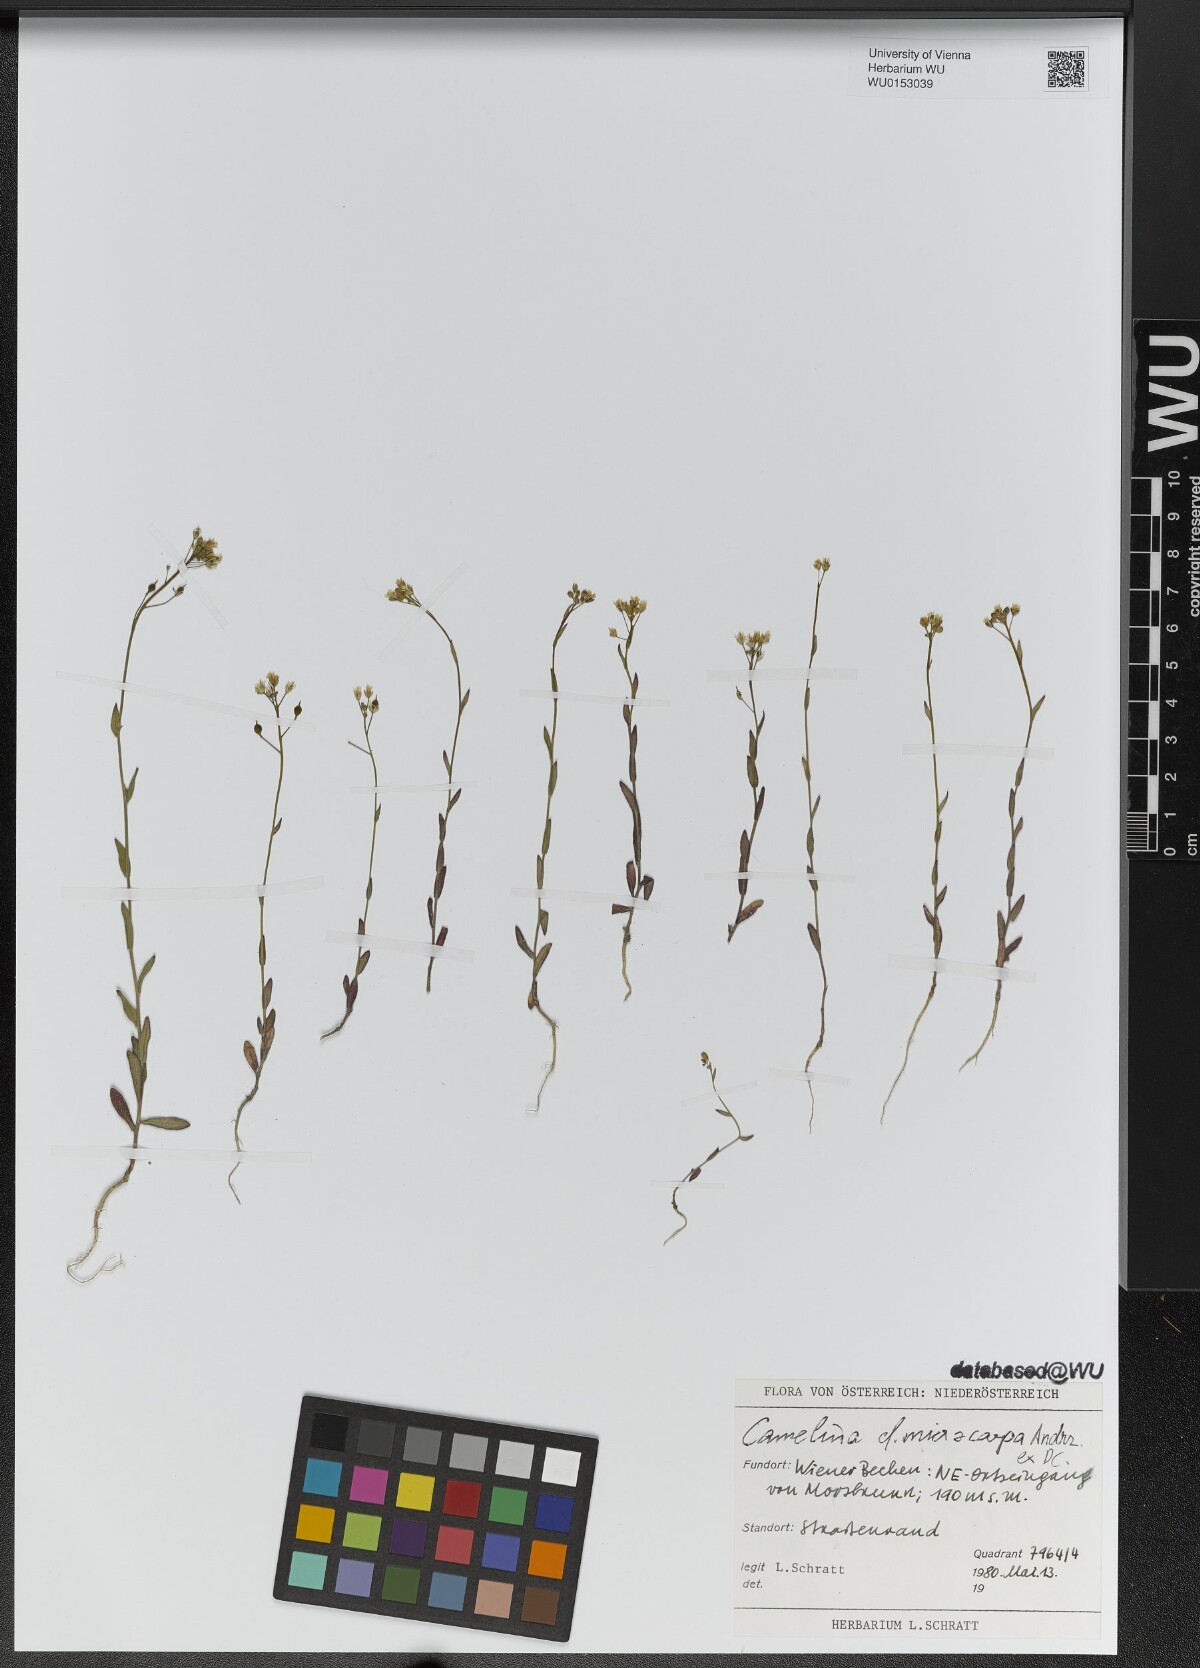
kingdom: Plantae
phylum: Tracheophyta
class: Magnoliopsida
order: Brassicales
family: Brassicaceae
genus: Camelina
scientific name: Camelina microcarpa
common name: Lesser gold-of-pleasure
